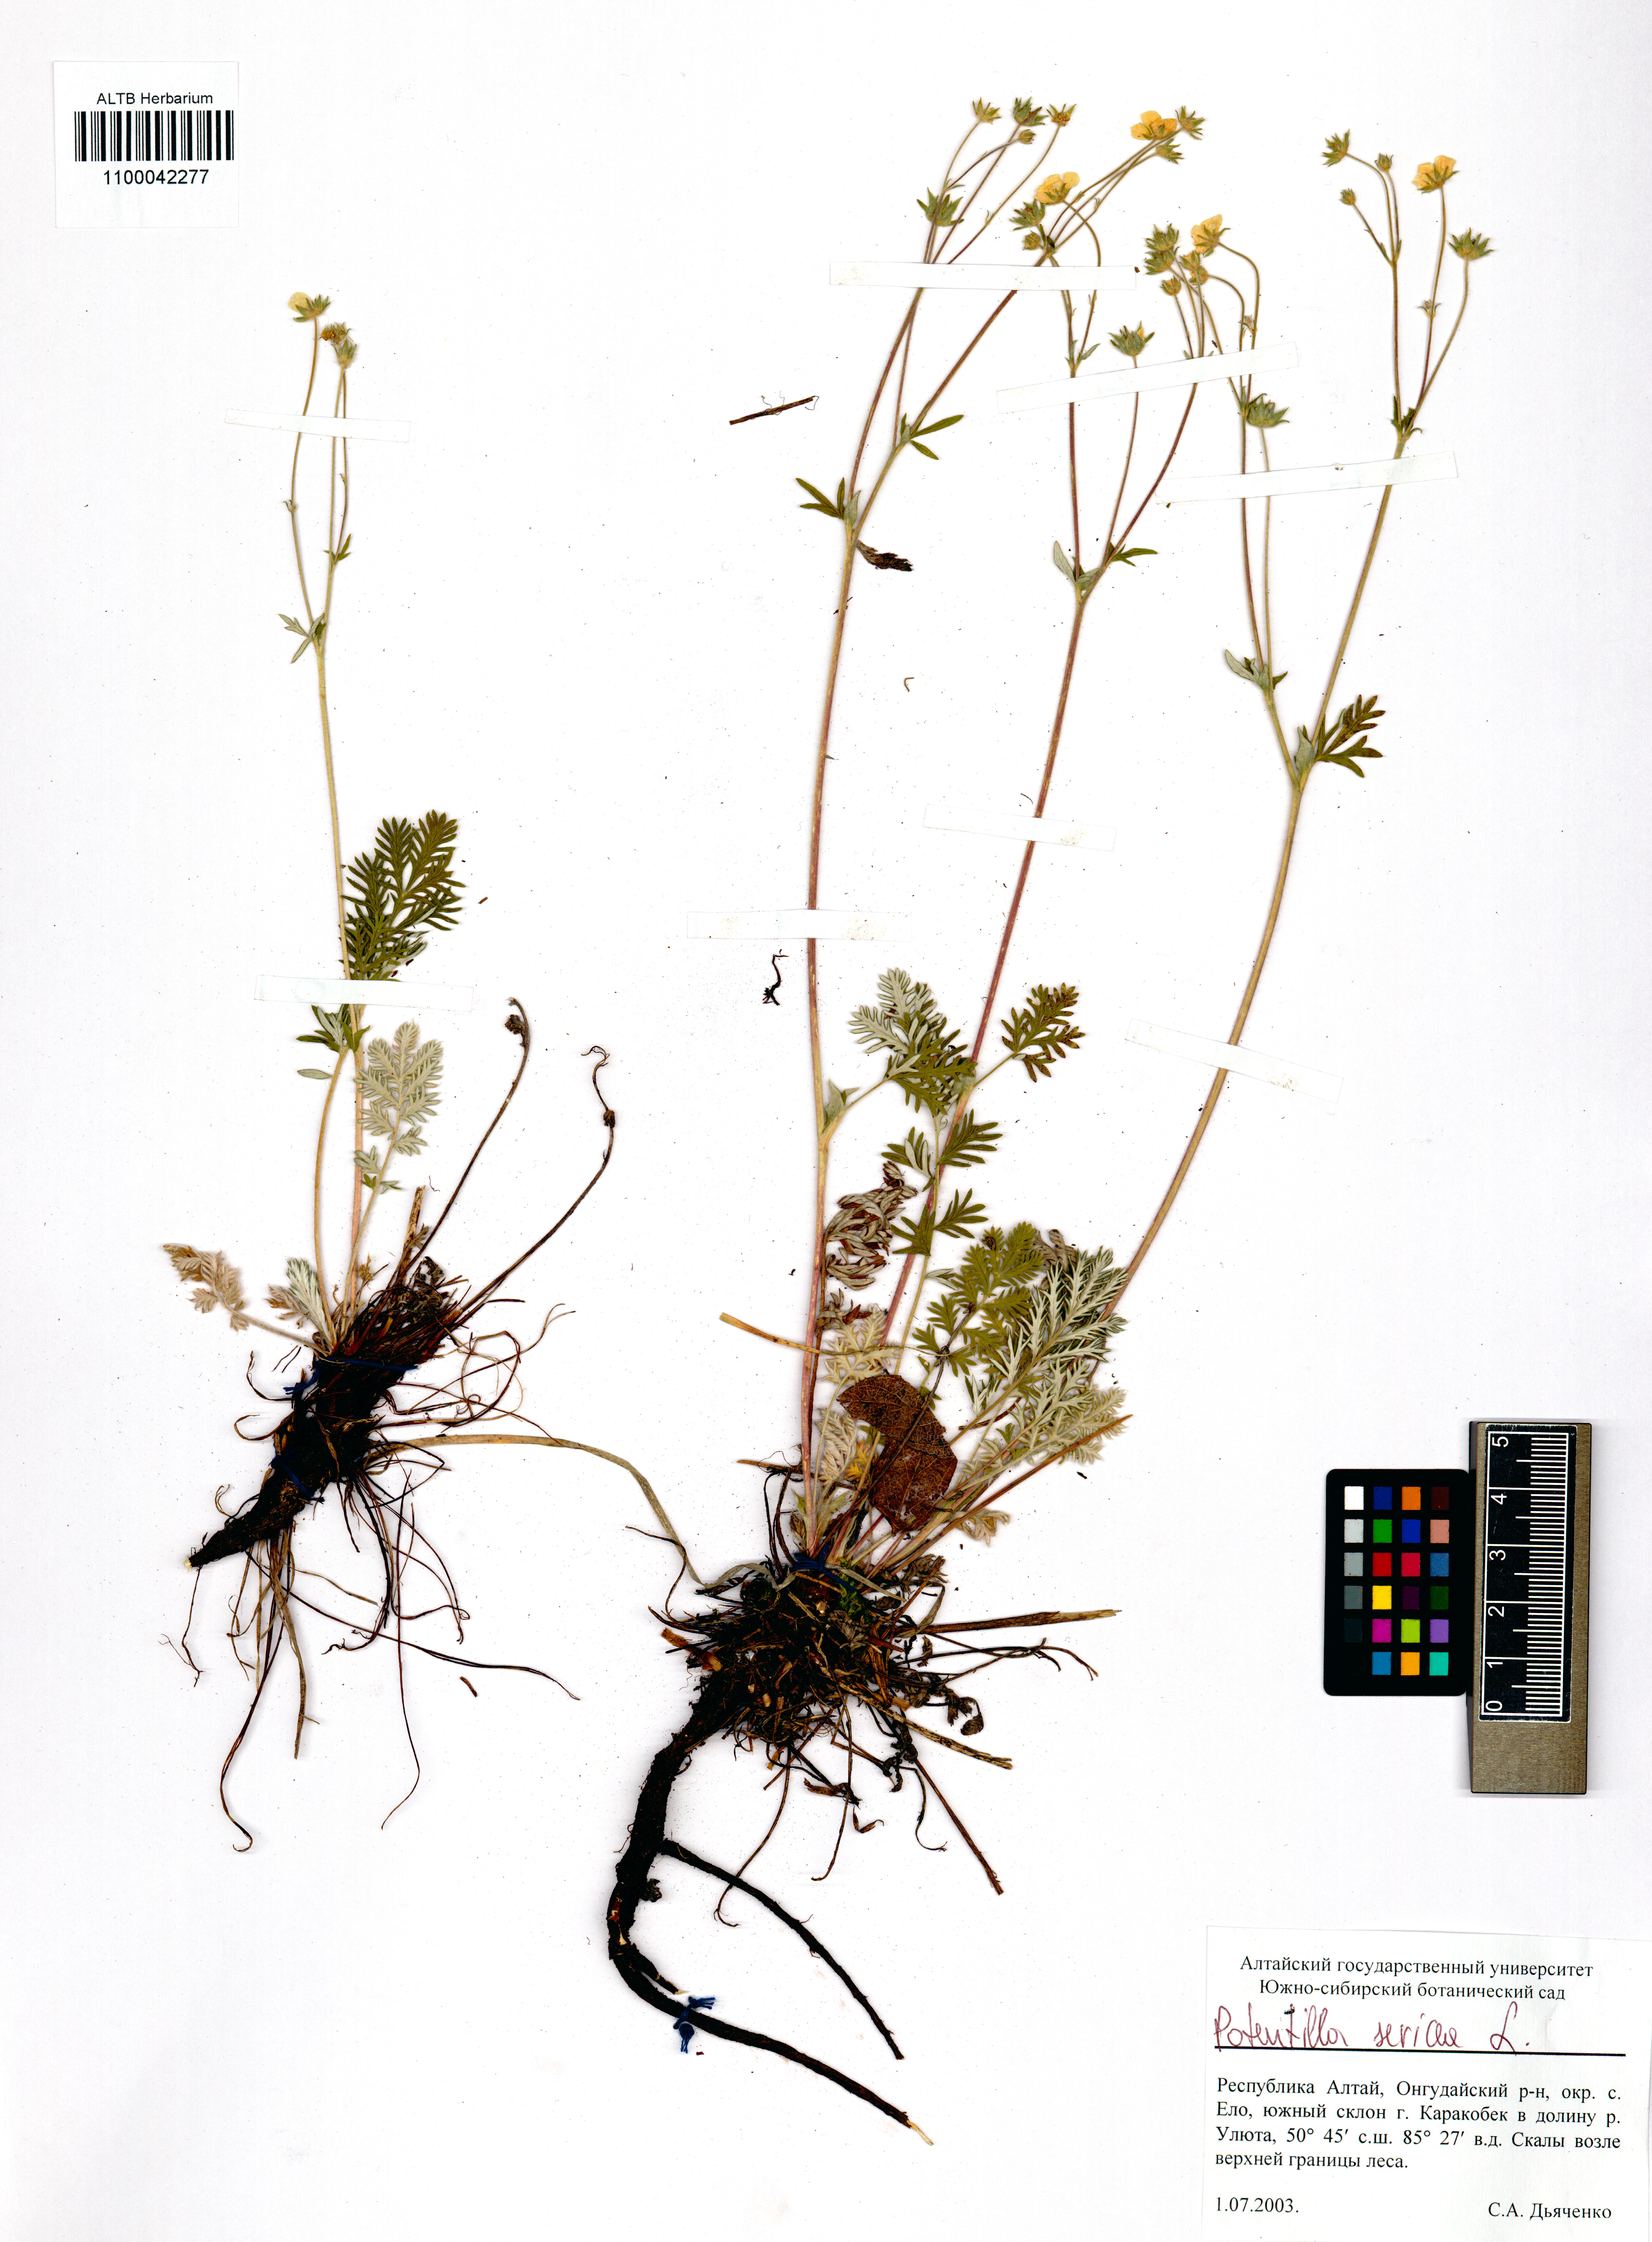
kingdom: Plantae
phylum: Tracheophyta
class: Magnoliopsida
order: Rosales
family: Rosaceae
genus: Potentilla
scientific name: Potentilla sericea
